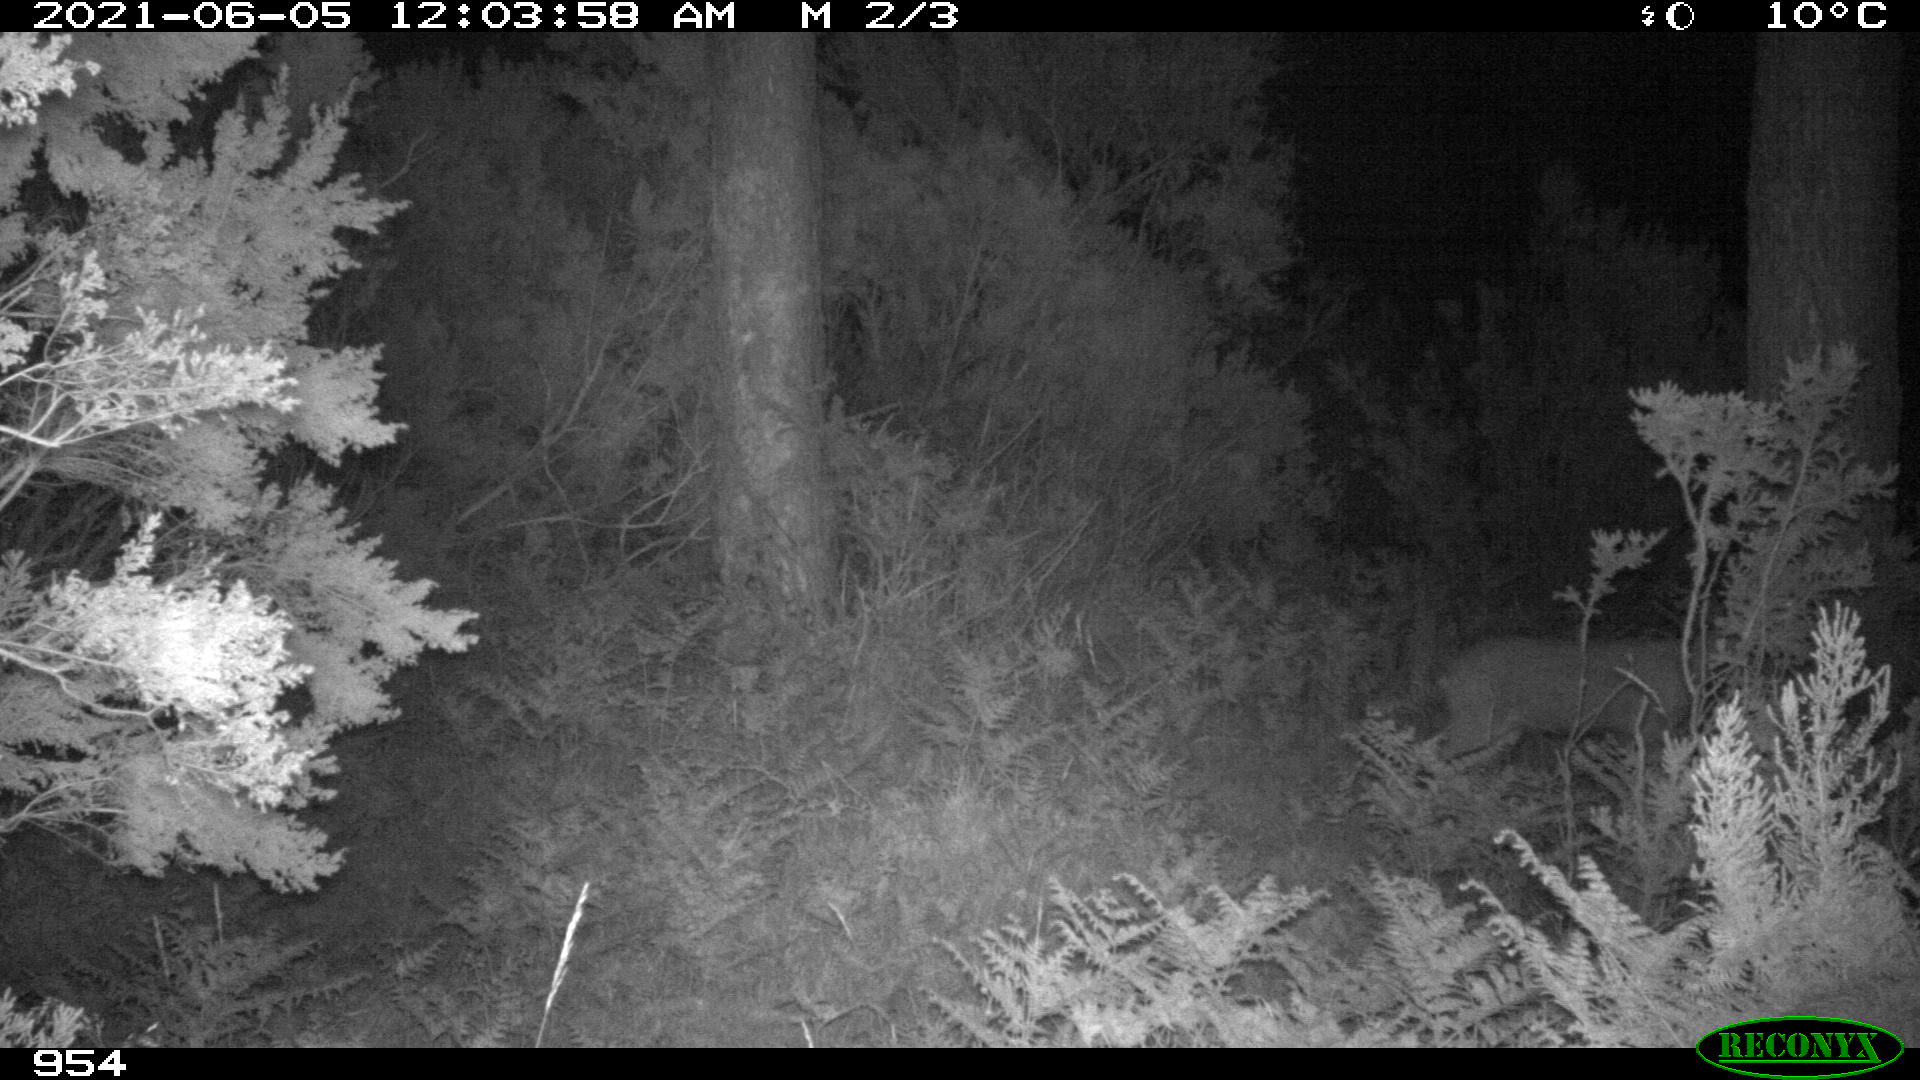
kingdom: Animalia
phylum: Chordata
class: Mammalia
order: Artiodactyla
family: Cervidae
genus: Capreolus
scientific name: Capreolus capreolus
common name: Western roe deer
